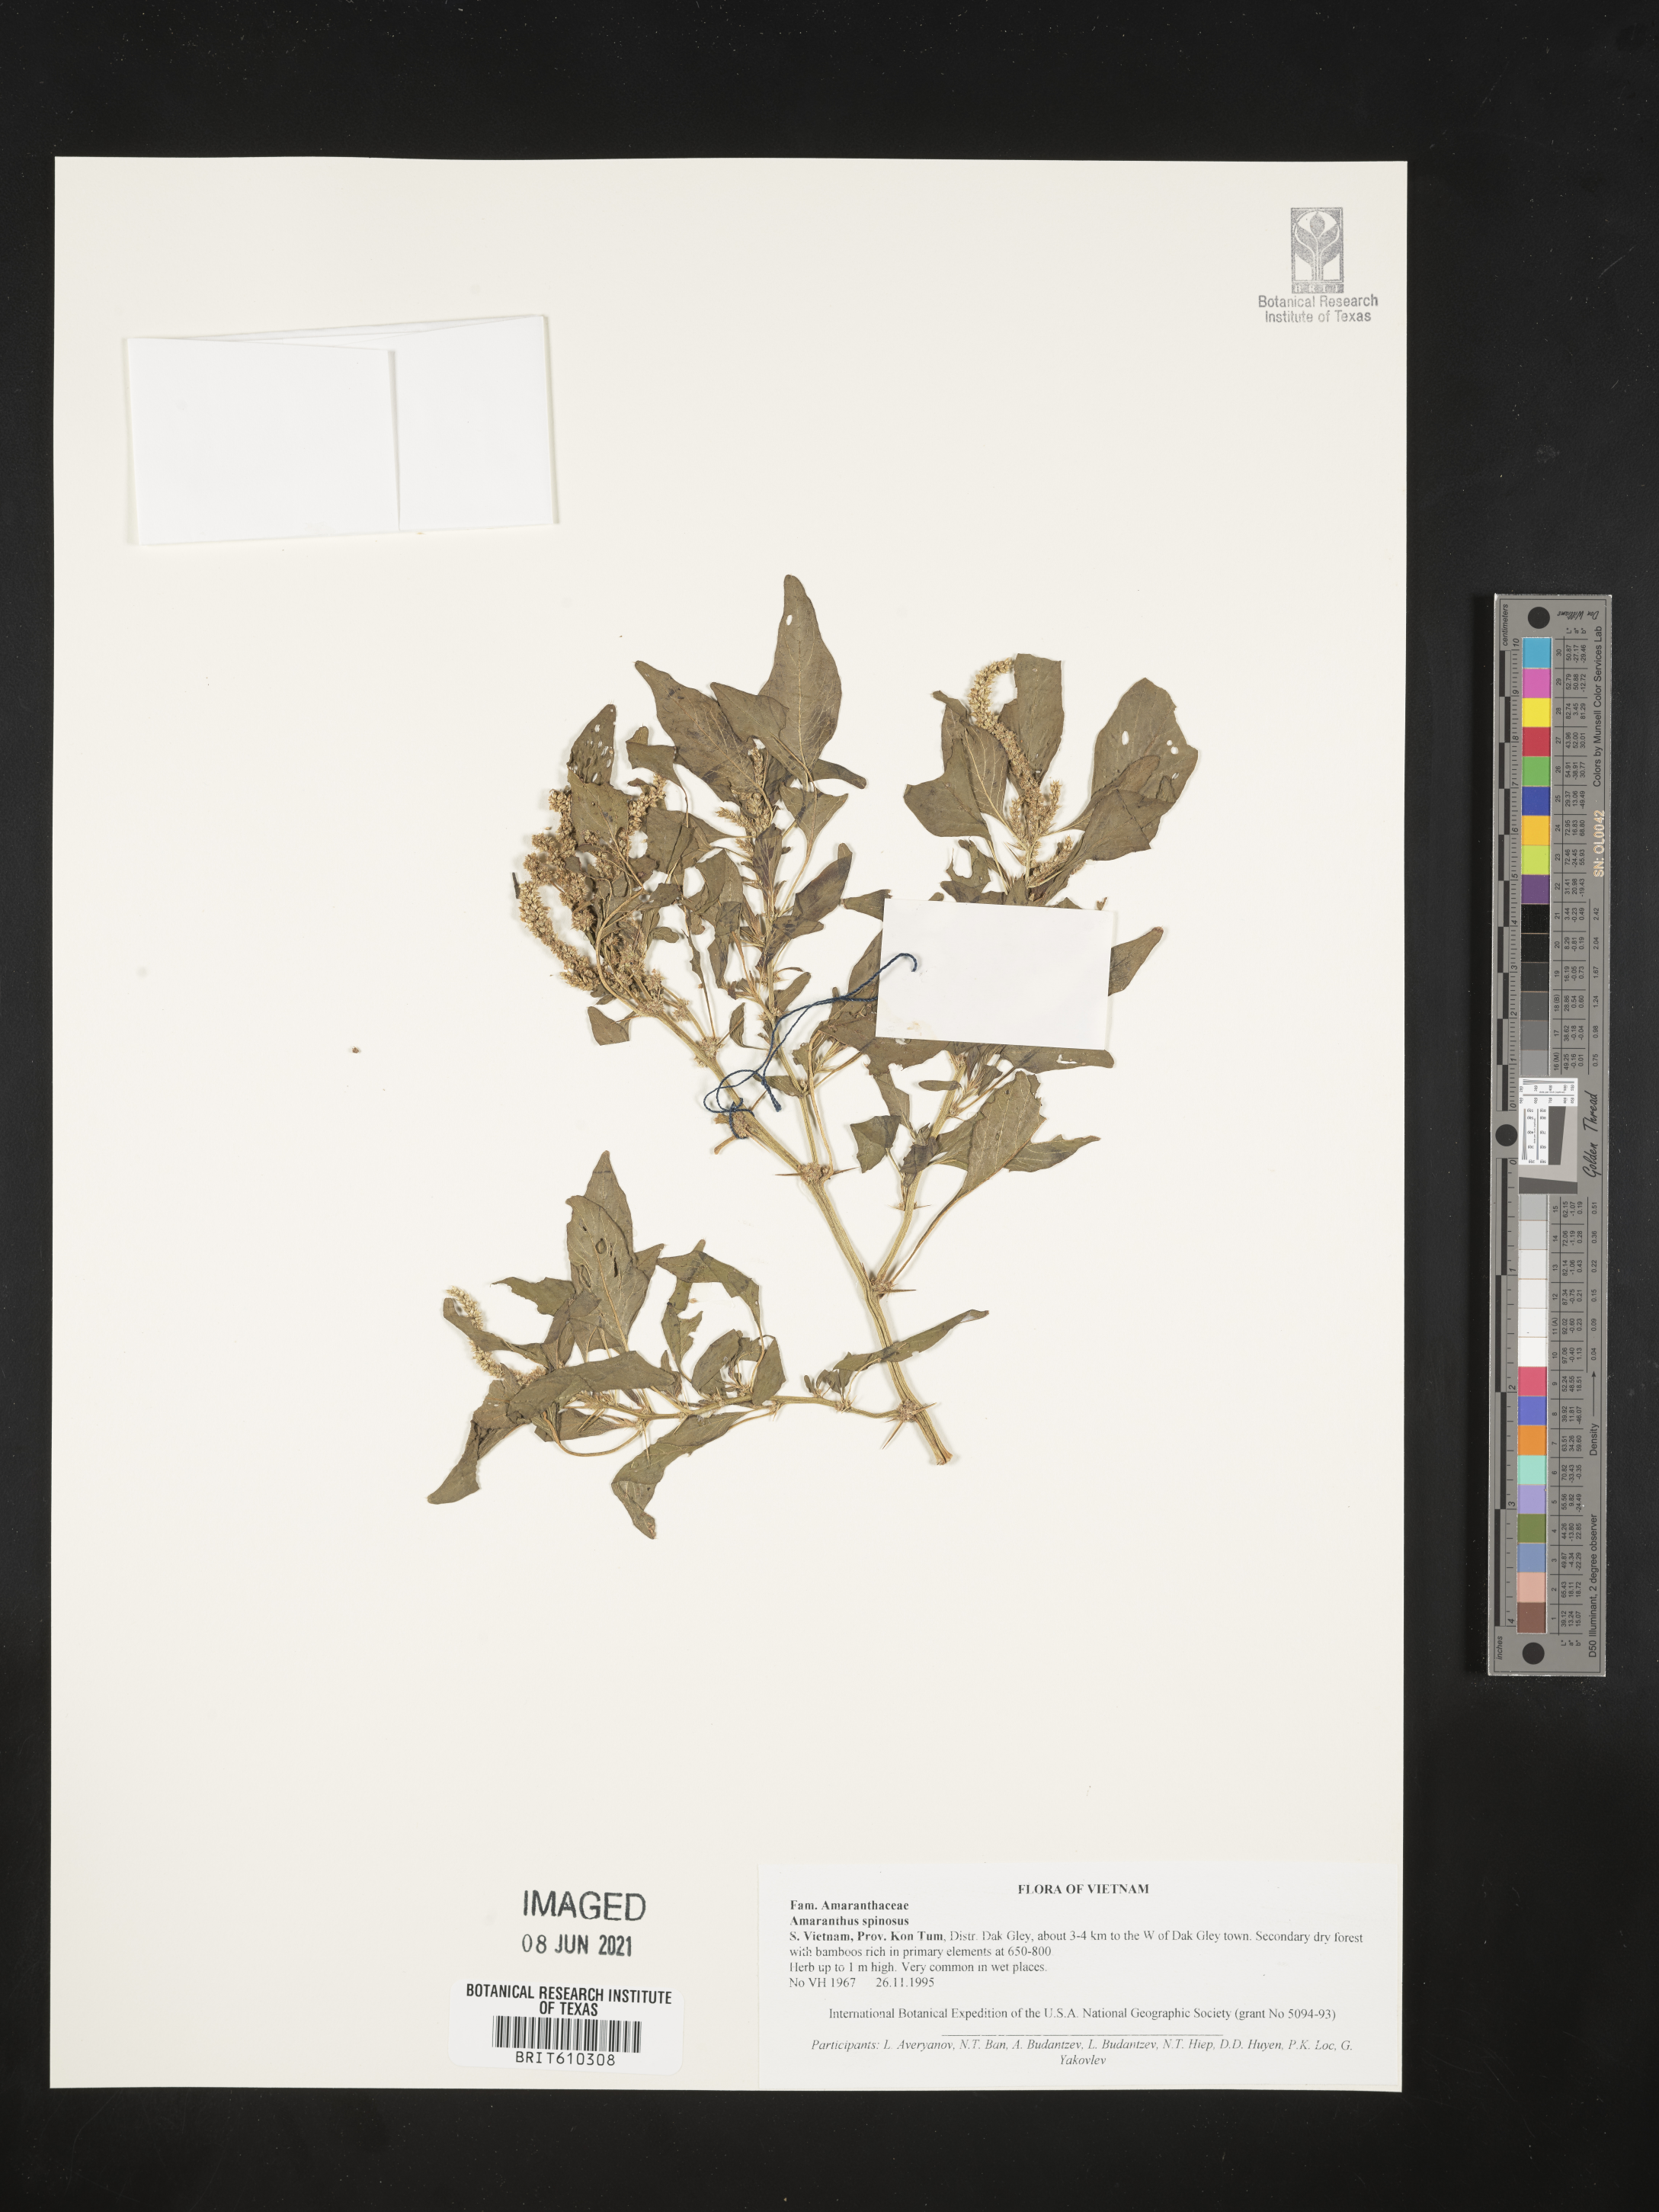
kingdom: Plantae
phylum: Tracheophyta
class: Magnoliopsida
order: Caryophyllales
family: Amaranthaceae
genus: Amaranthus
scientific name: Amaranthus spinosus
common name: Spiny amaranth
